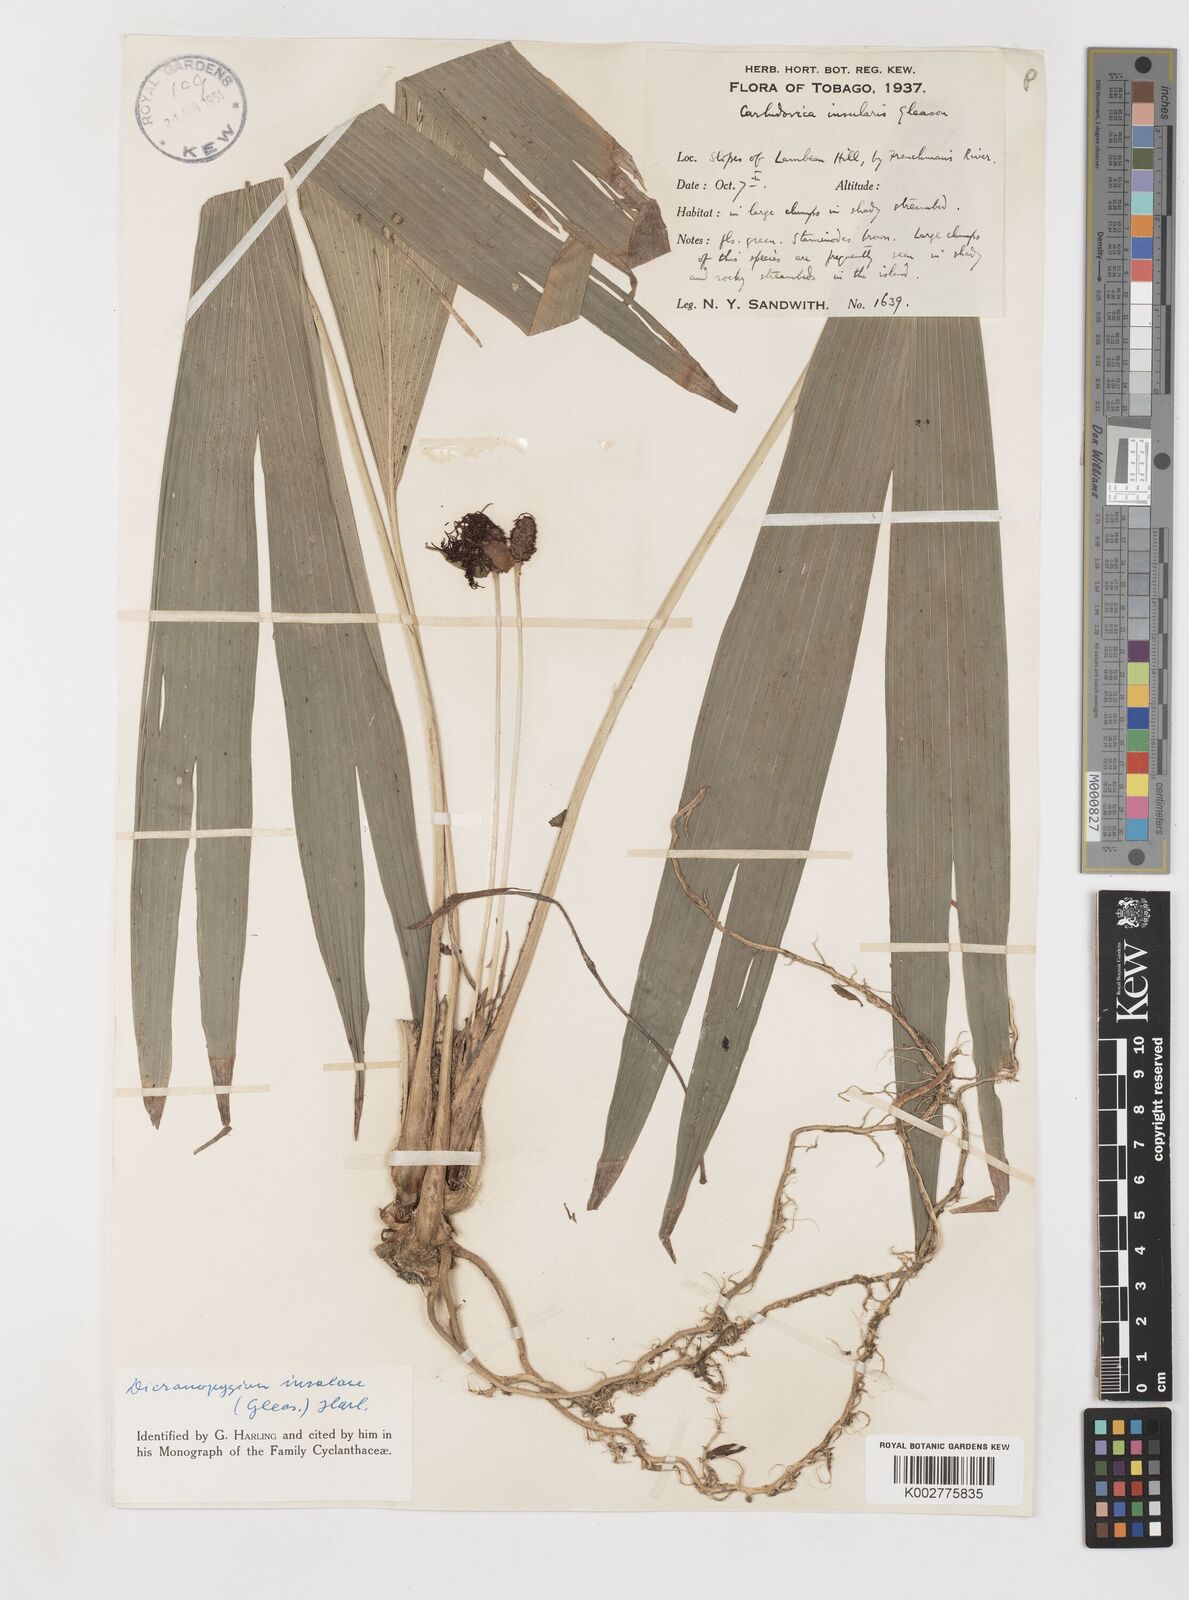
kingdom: Plantae
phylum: Tracheophyta
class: Liliopsida
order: Pandanales
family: Cyclanthaceae
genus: Dicranopygium
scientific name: Dicranopygium insulare
